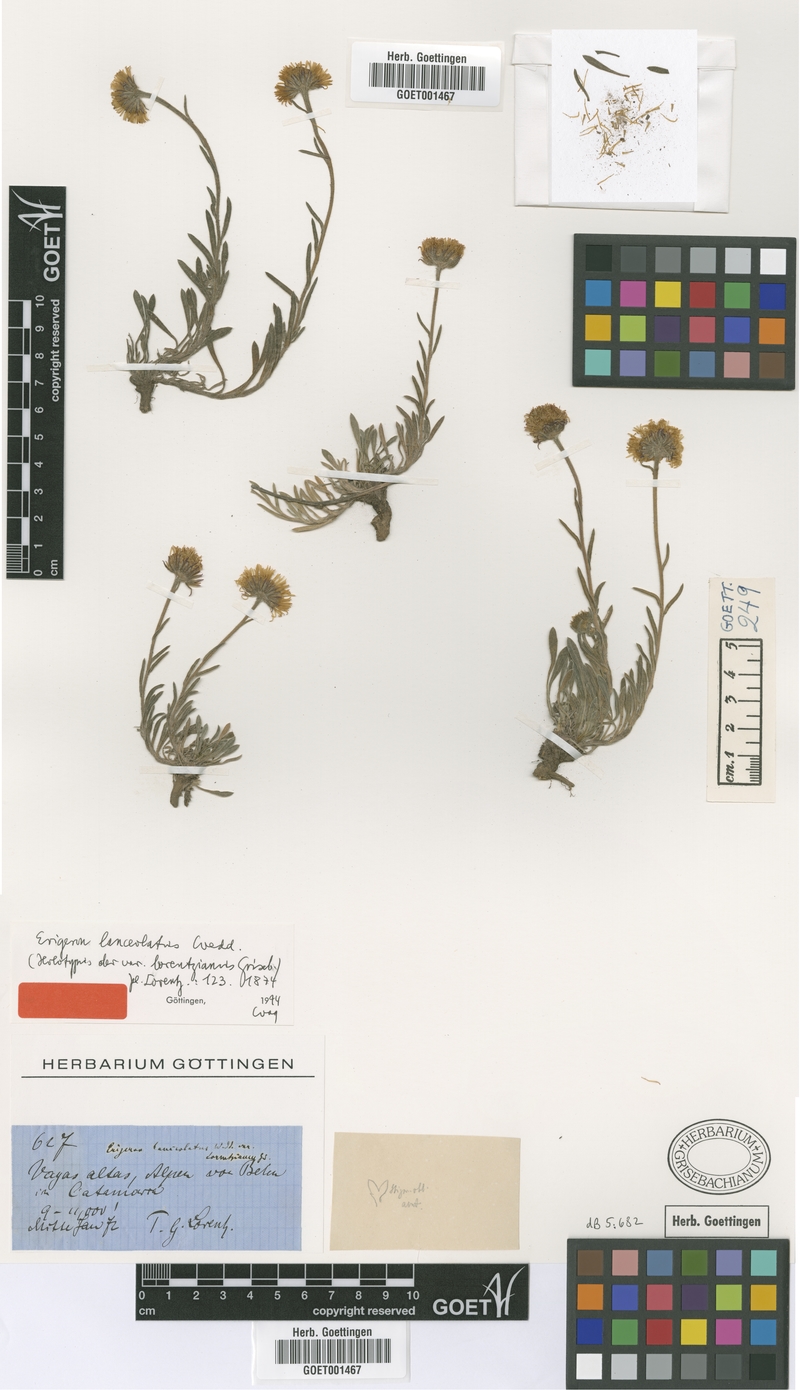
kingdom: Plantae
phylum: Tracheophyta
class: Magnoliopsida
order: Asterales
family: Asteraceae
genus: Erigeron
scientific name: Erigeron lanceolatus
